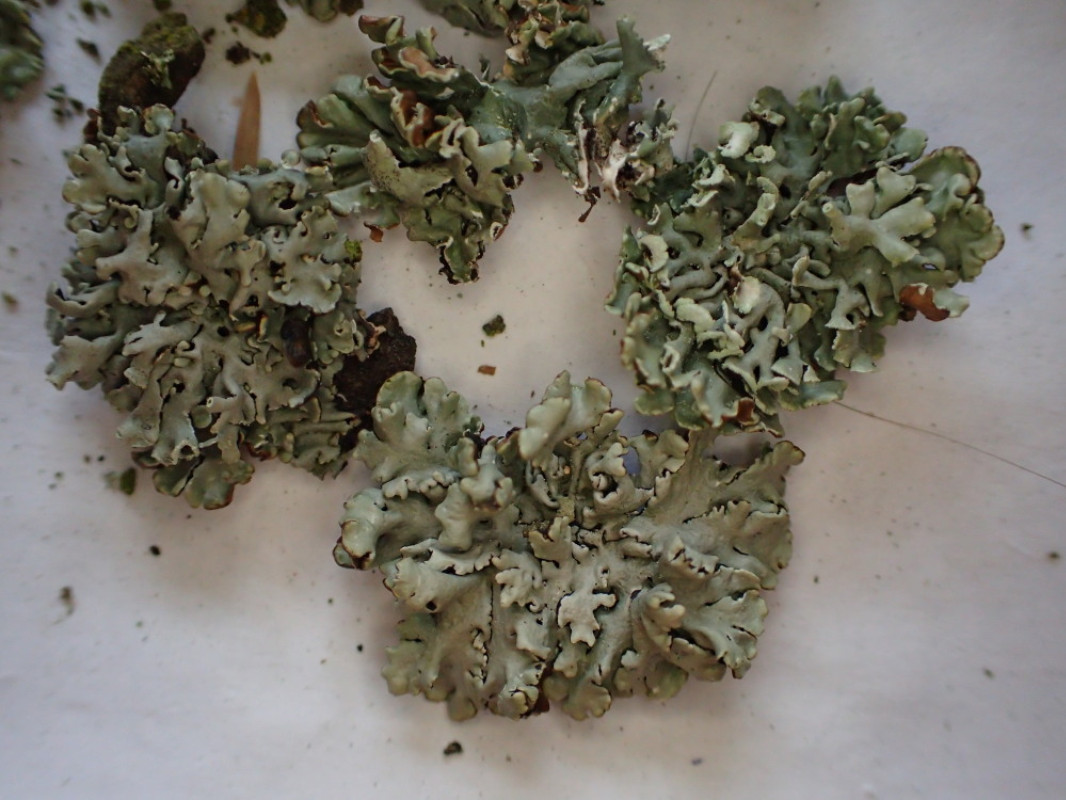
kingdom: Fungi
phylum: Ascomycota
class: Lecanoromycetes
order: Lecanorales
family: Parmeliaceae
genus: Hypogymnia
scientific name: Hypogymnia physodes
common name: almindelig kvistlav
